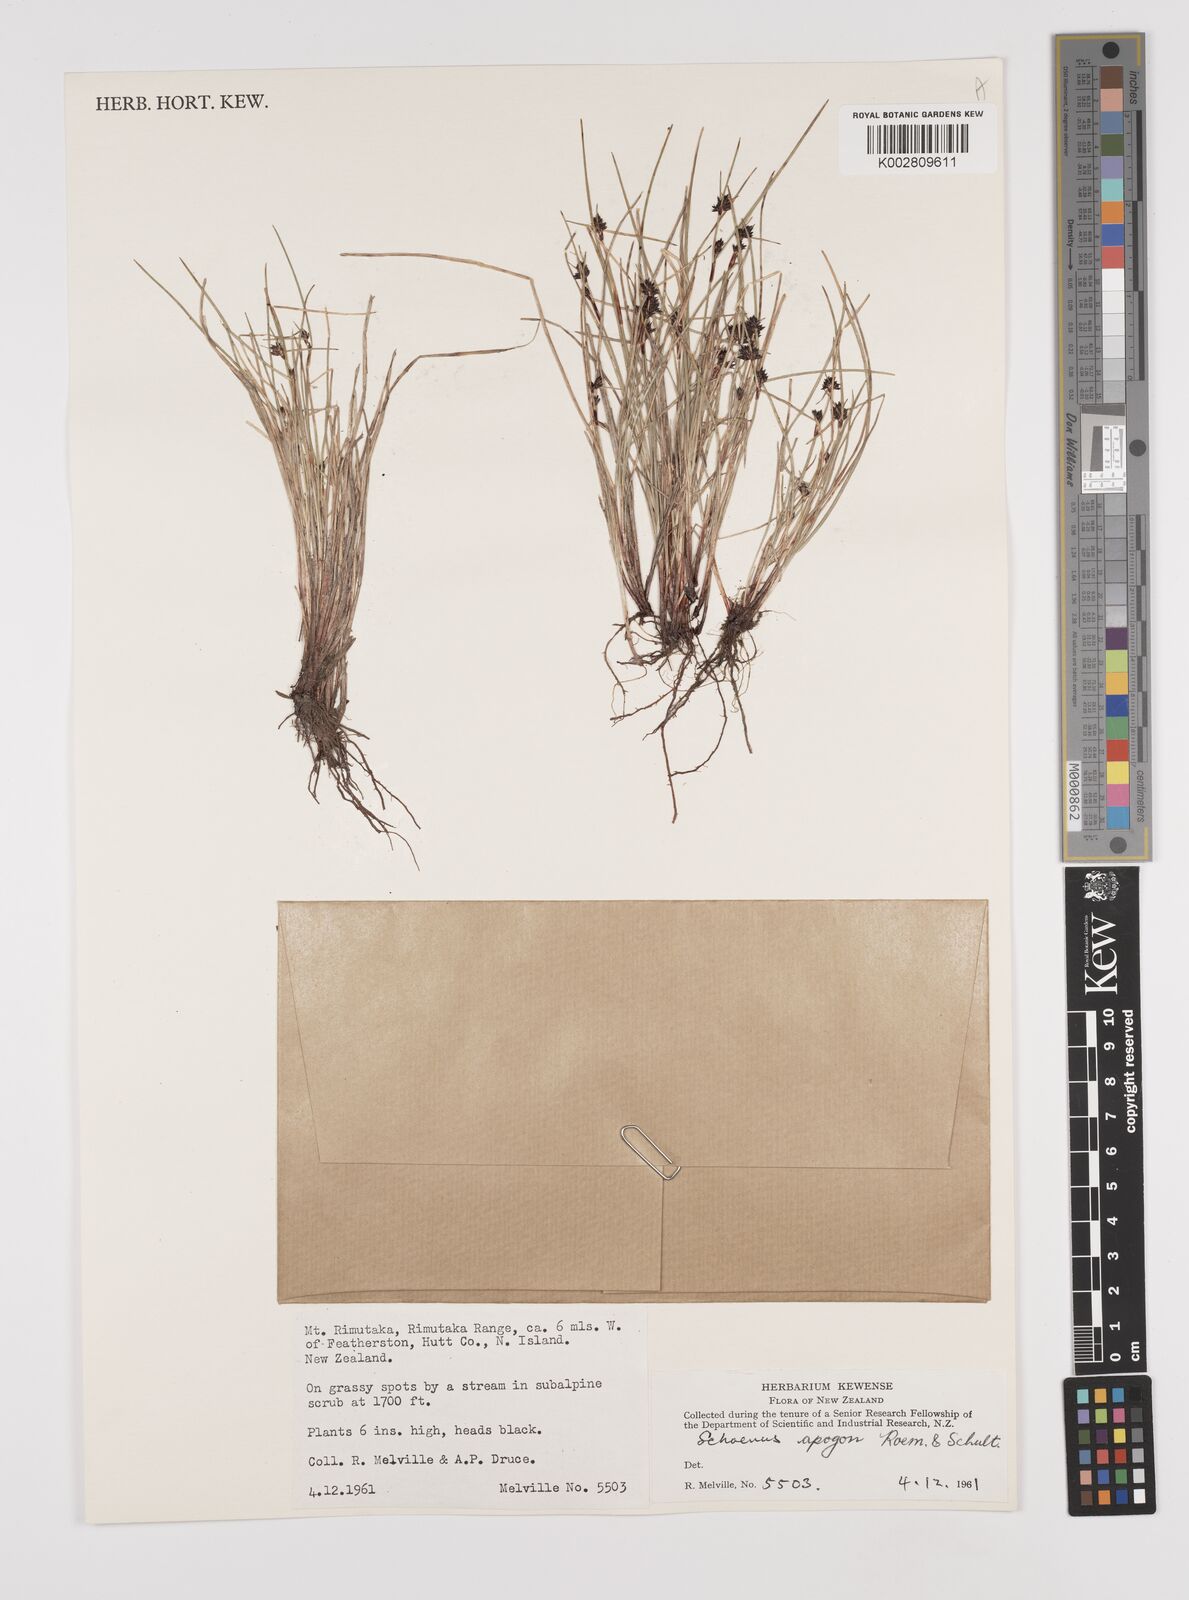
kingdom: Plantae
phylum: Tracheophyta
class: Liliopsida
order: Poales
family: Cyperaceae
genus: Schoenus
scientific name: Schoenus apogon
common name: Smooth bogrush
